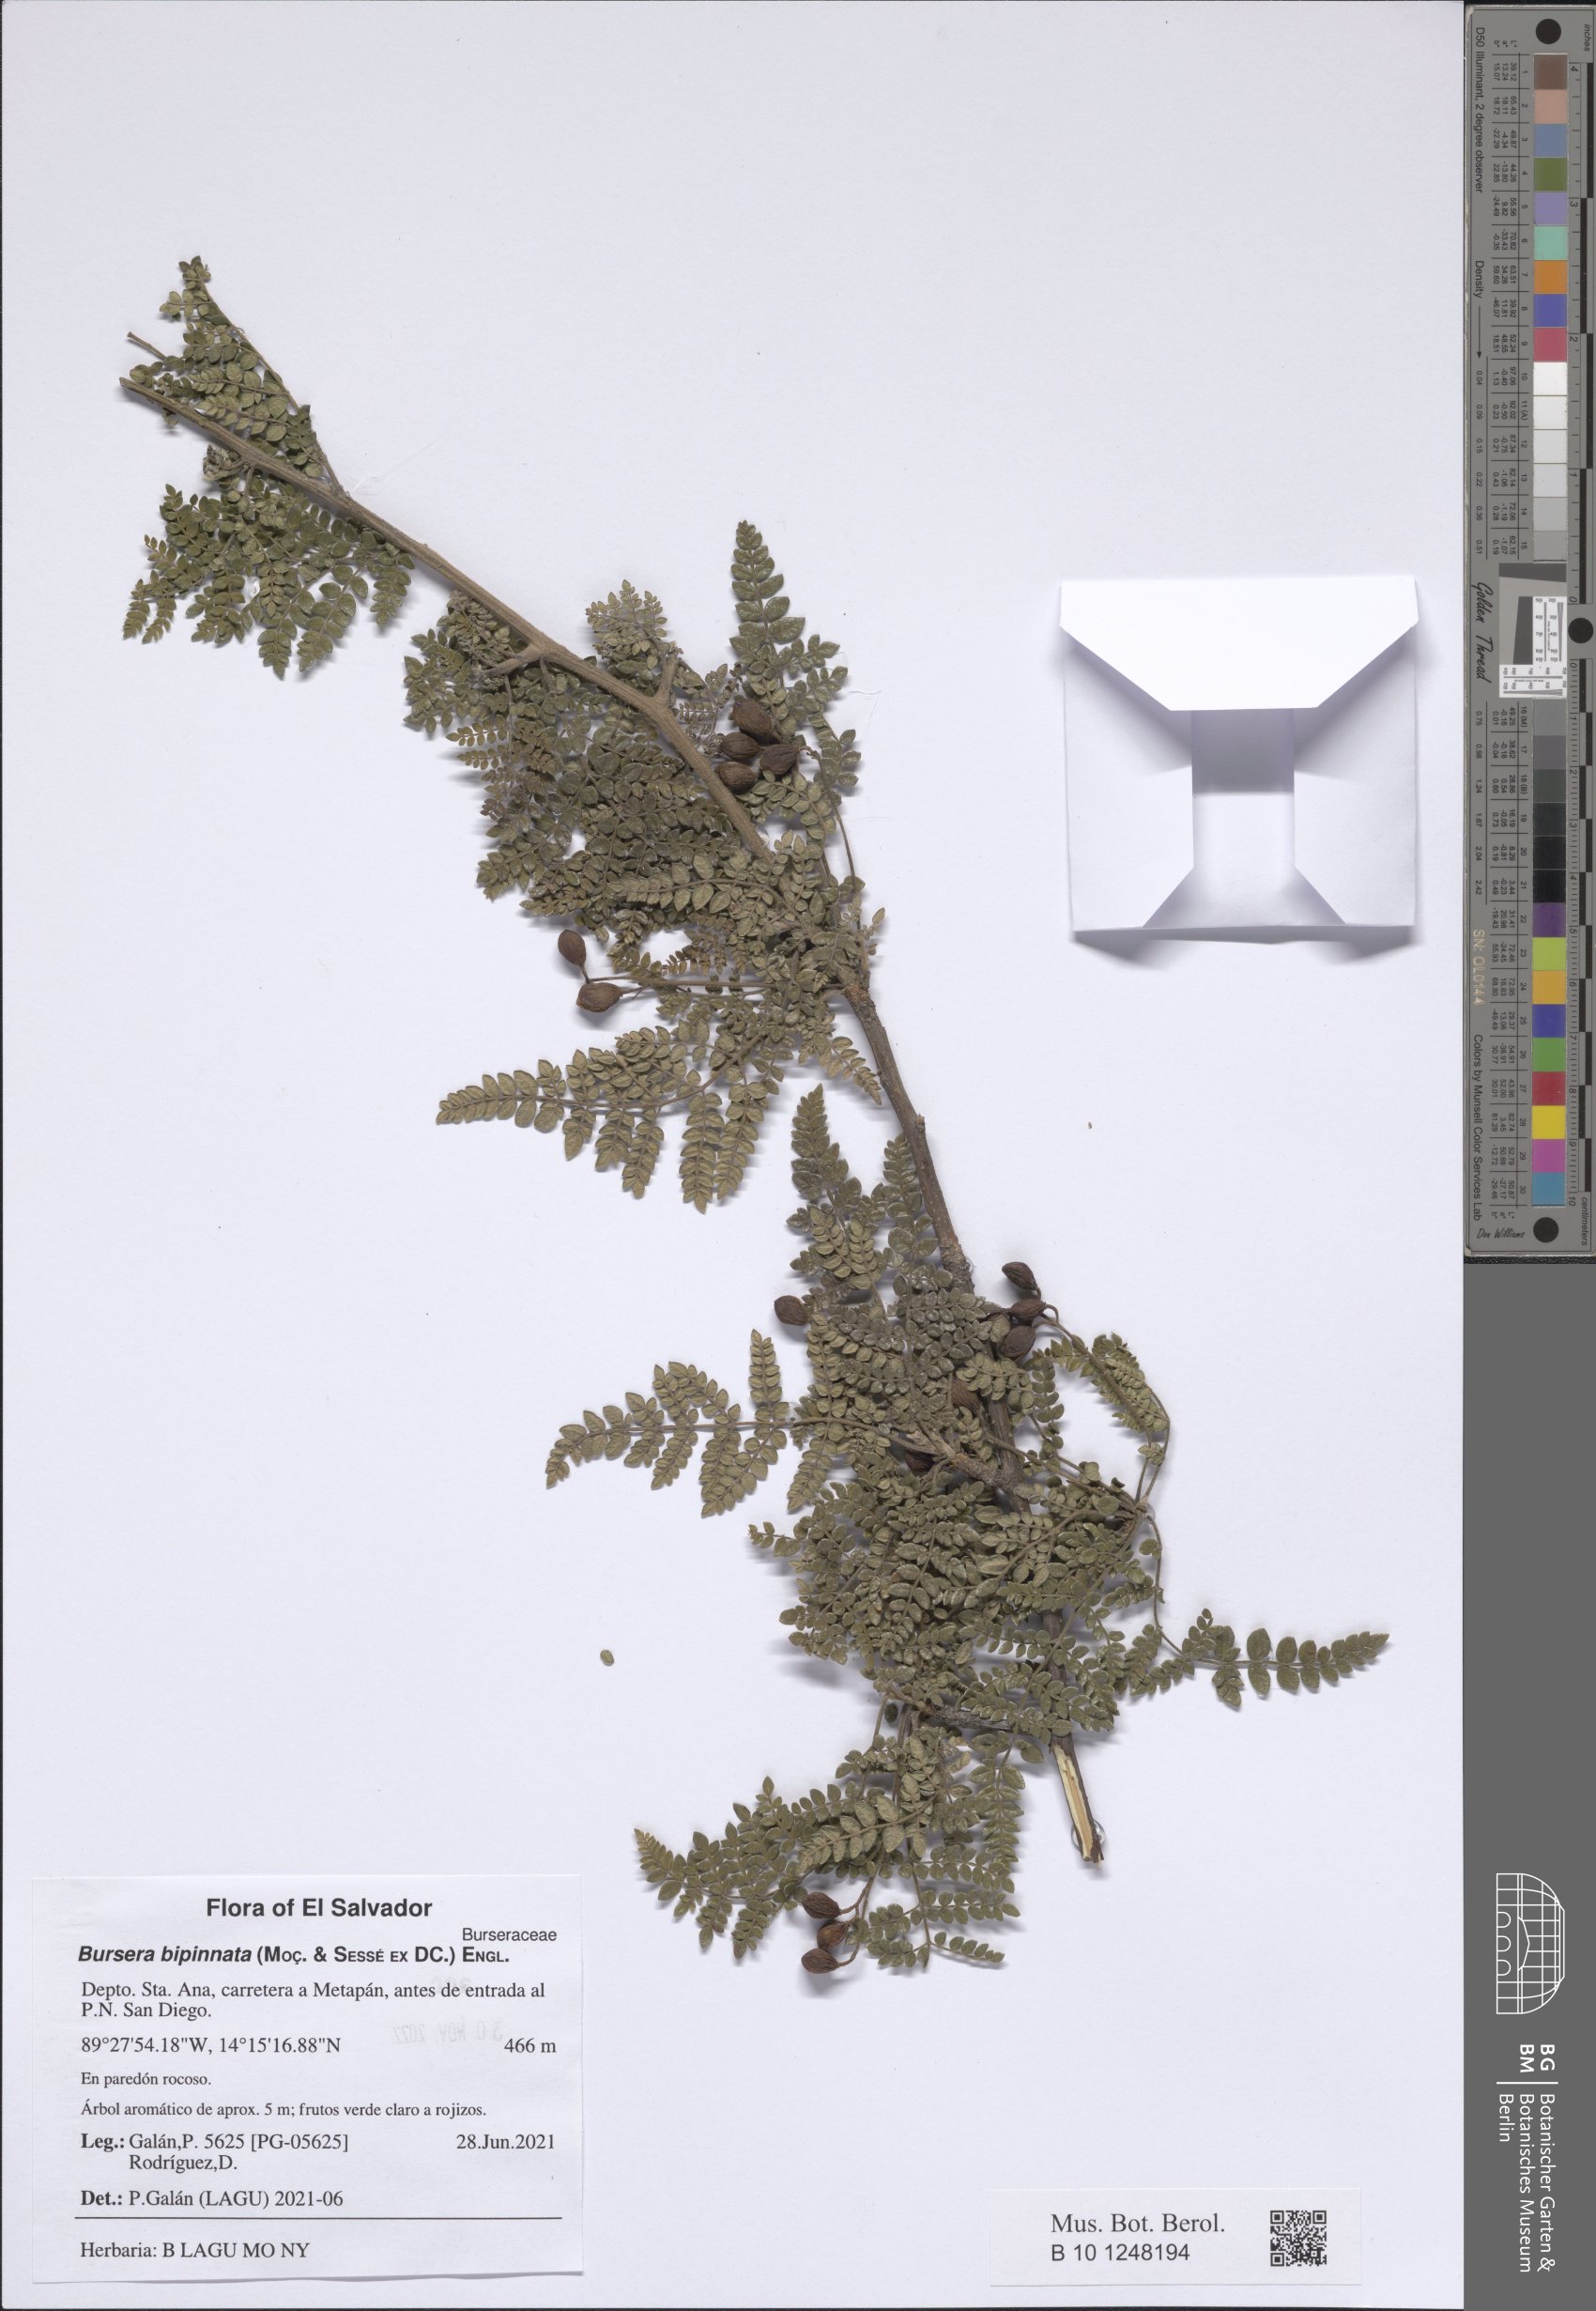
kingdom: Plantae
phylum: Tracheophyta
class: Magnoliopsida
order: Sapindales
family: Burseraceae
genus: Bursera
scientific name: Bursera bipinnata
